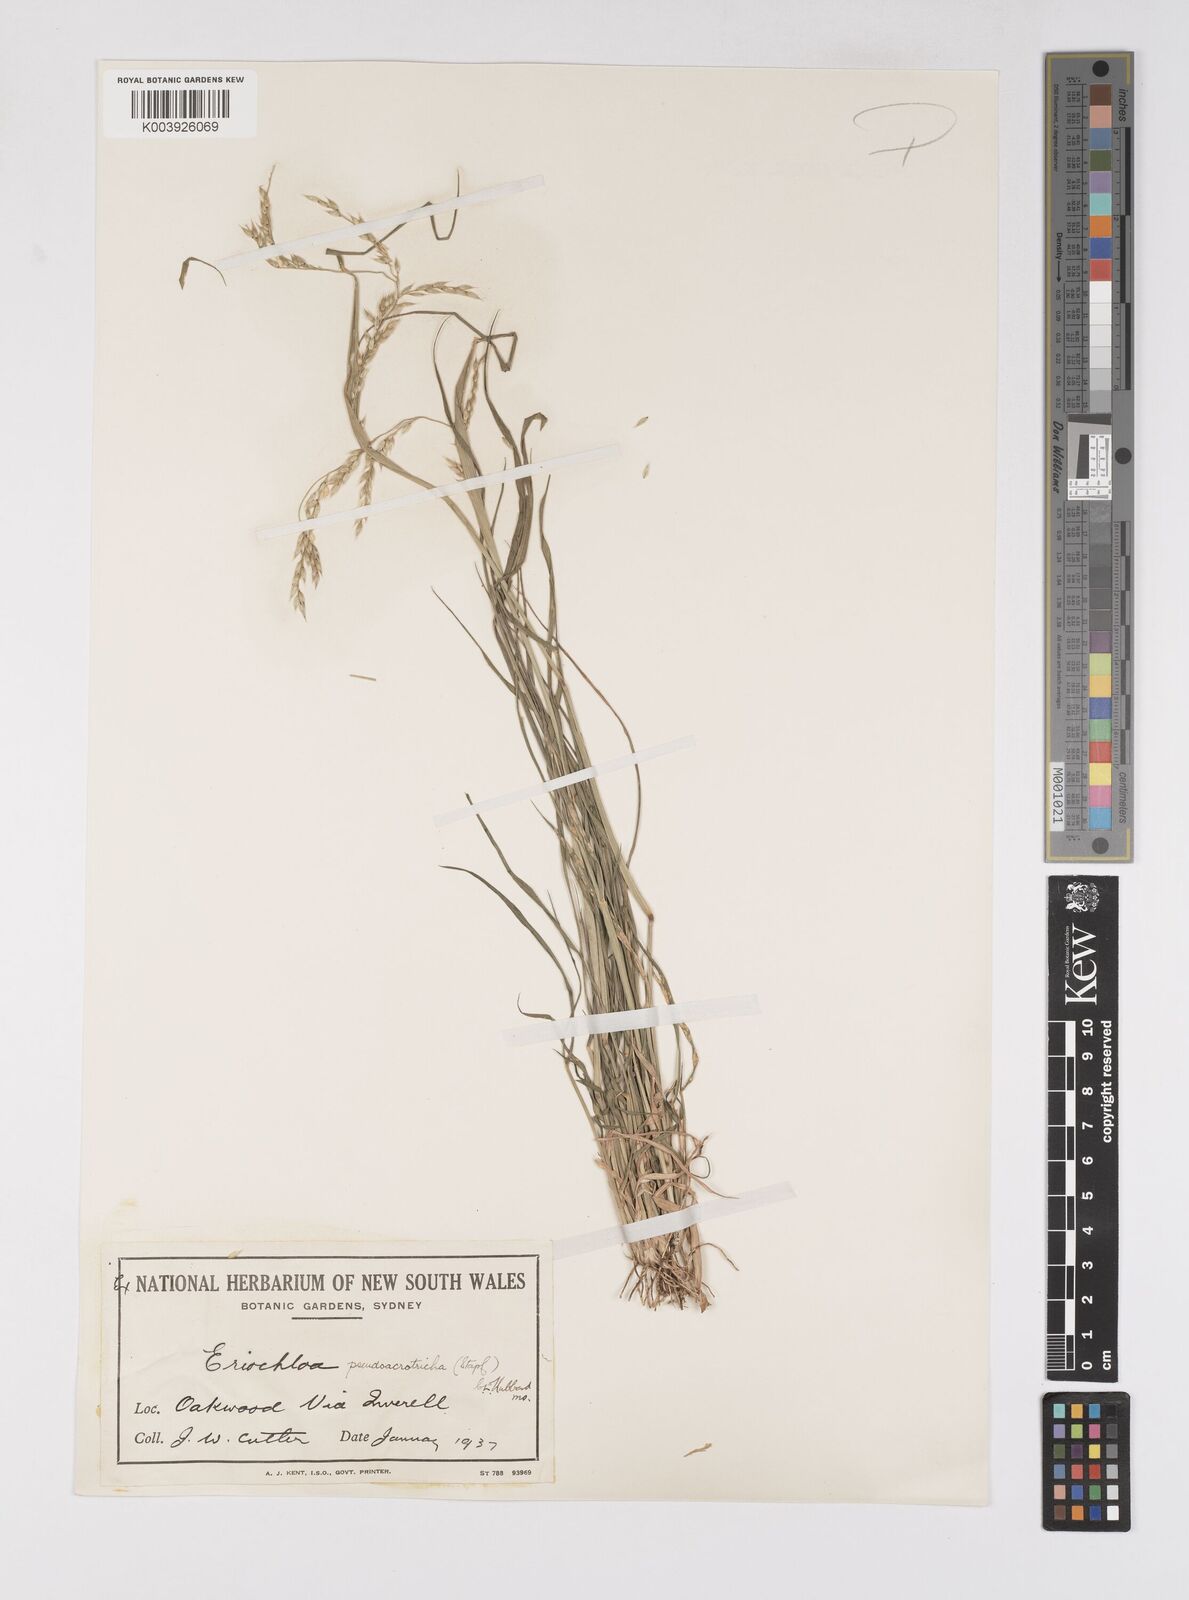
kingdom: Plantae
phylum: Tracheophyta
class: Liliopsida
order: Poales
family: Poaceae
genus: Eriochloa
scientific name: Eriochloa pseudoacrotricha
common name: Perennial cup-grass
